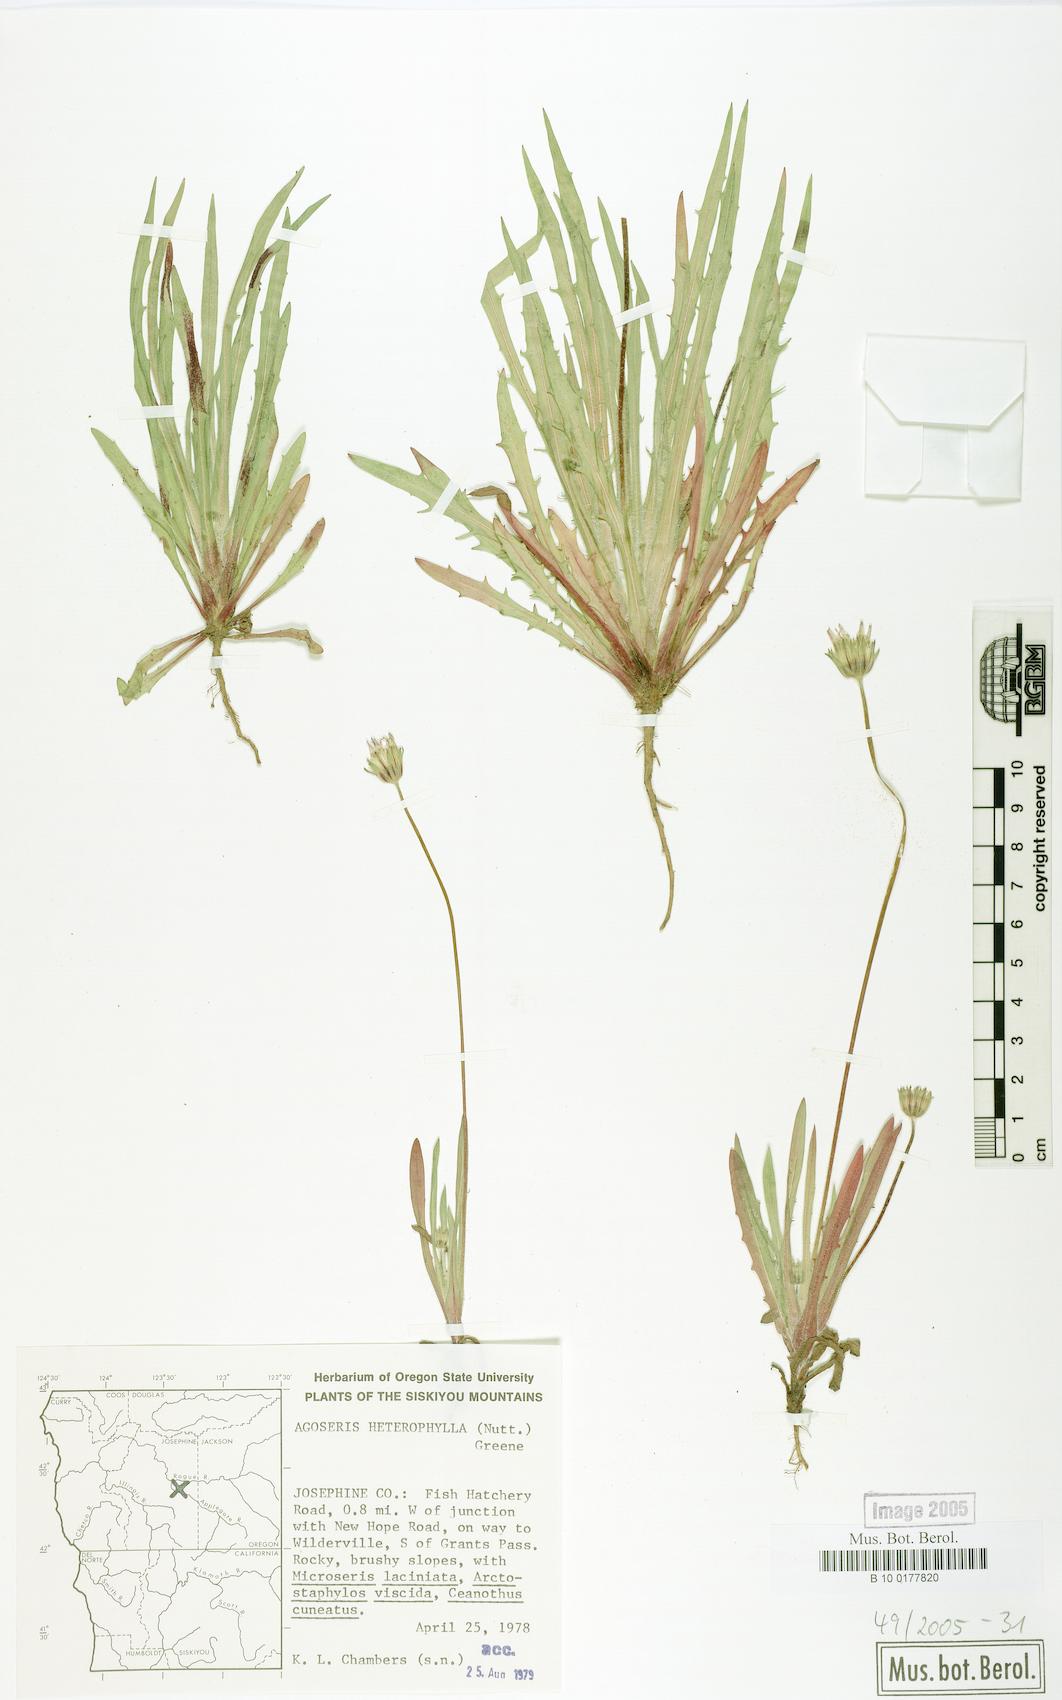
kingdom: Plantae
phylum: Tracheophyta
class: Magnoliopsida
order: Asterales
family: Asteraceae
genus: Agoseris
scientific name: Agoseris heterophylla
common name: Annual agoseris
